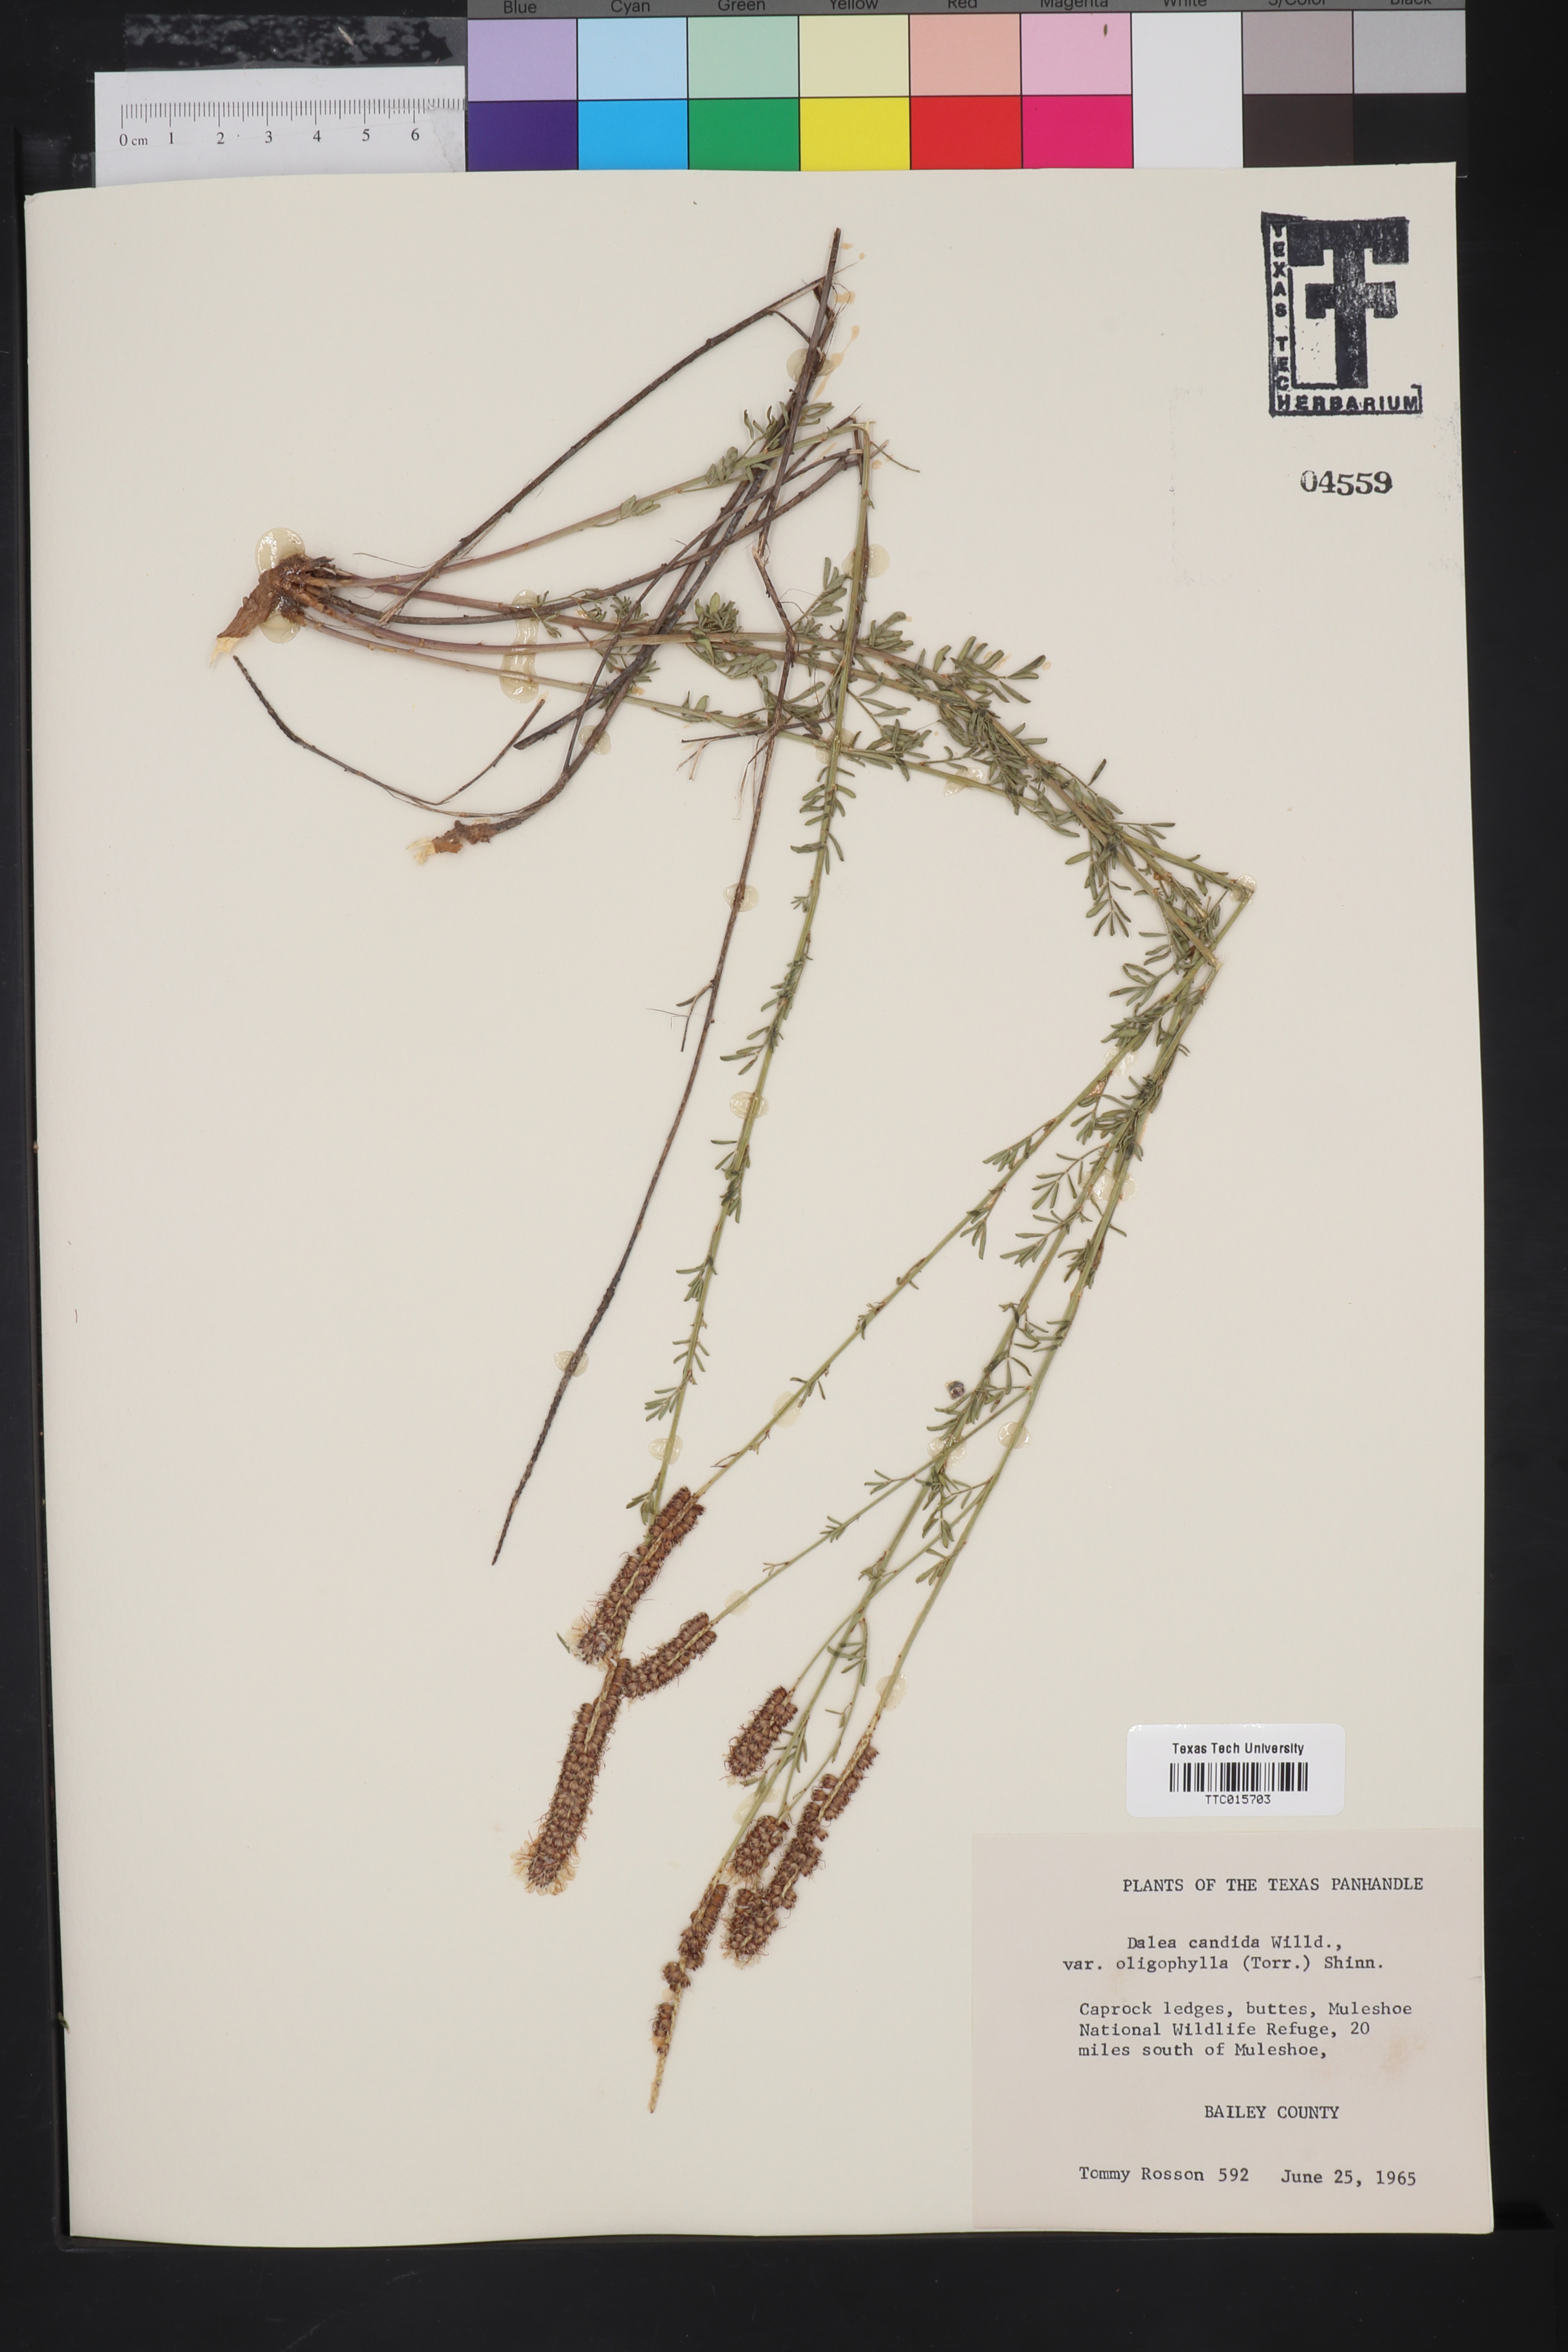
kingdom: Plantae
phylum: Tracheophyta
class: Magnoliopsida
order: Fabales
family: Fabaceae
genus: Petalostemum
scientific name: Petalostemum
